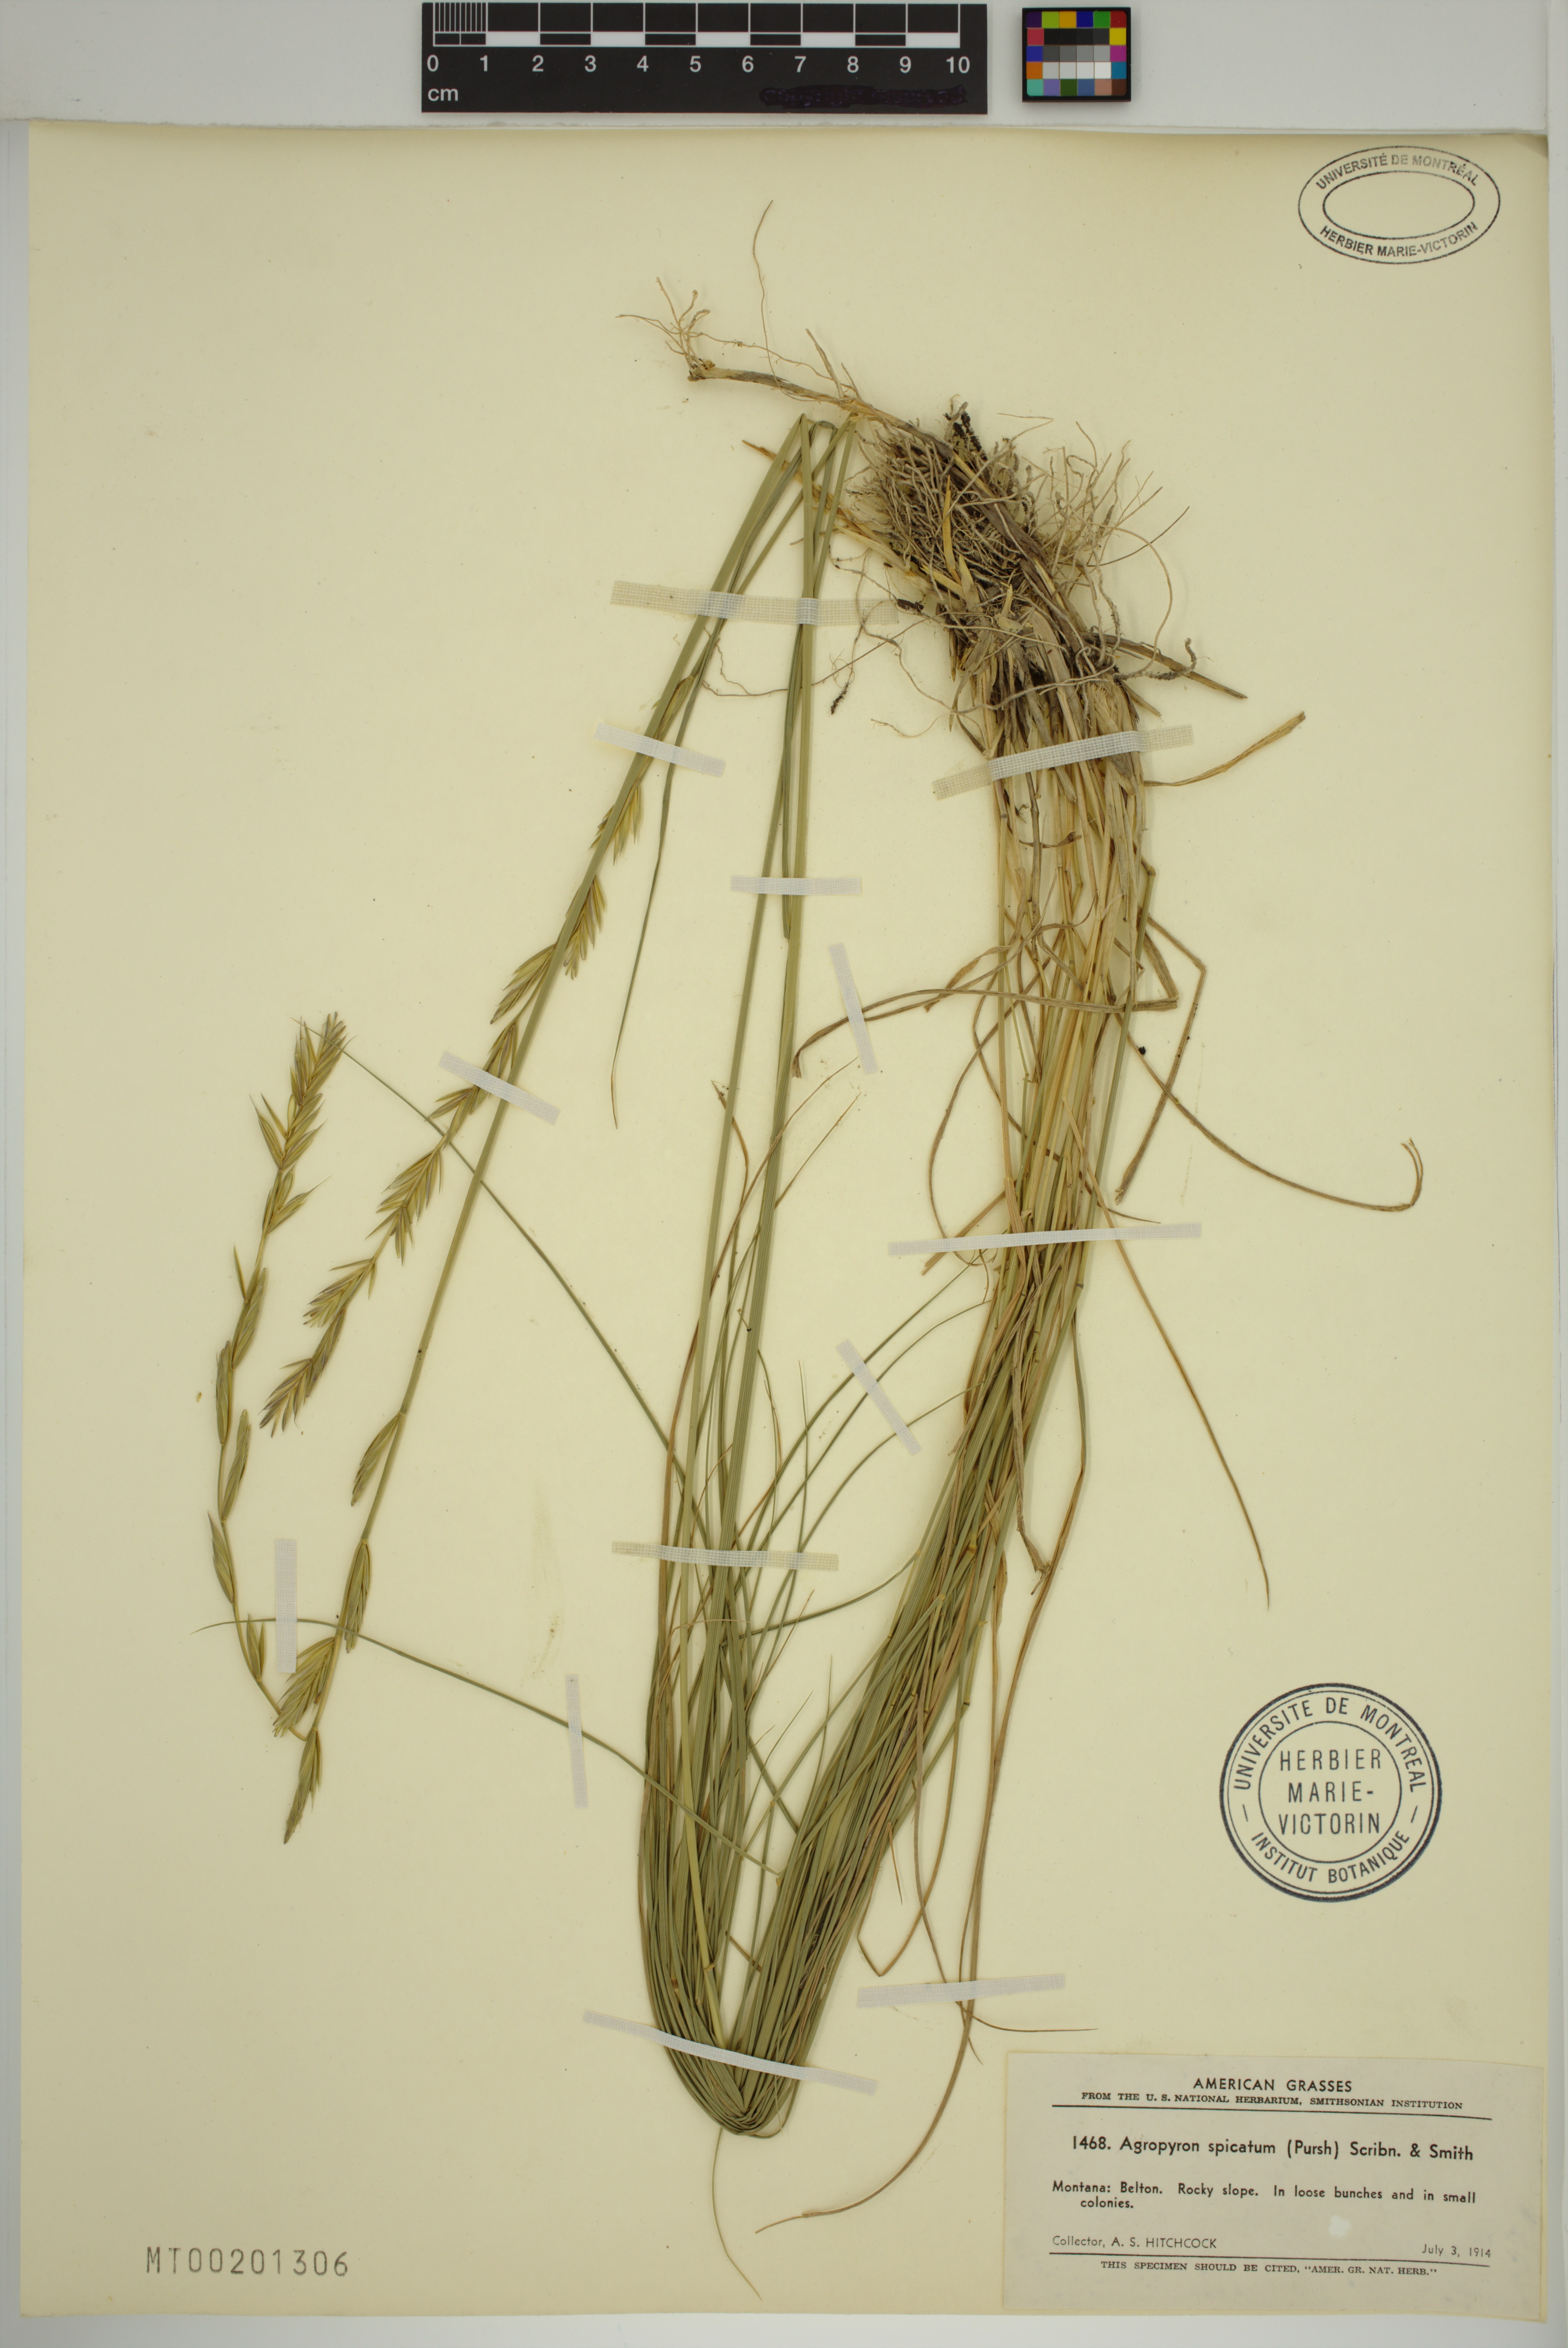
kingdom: Plantae
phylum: Tracheophyta
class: Liliopsida
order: Poales
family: Poaceae
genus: Pseudoroegneria
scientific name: Pseudoroegneria spicata
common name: Bluebunch wheatgrass
